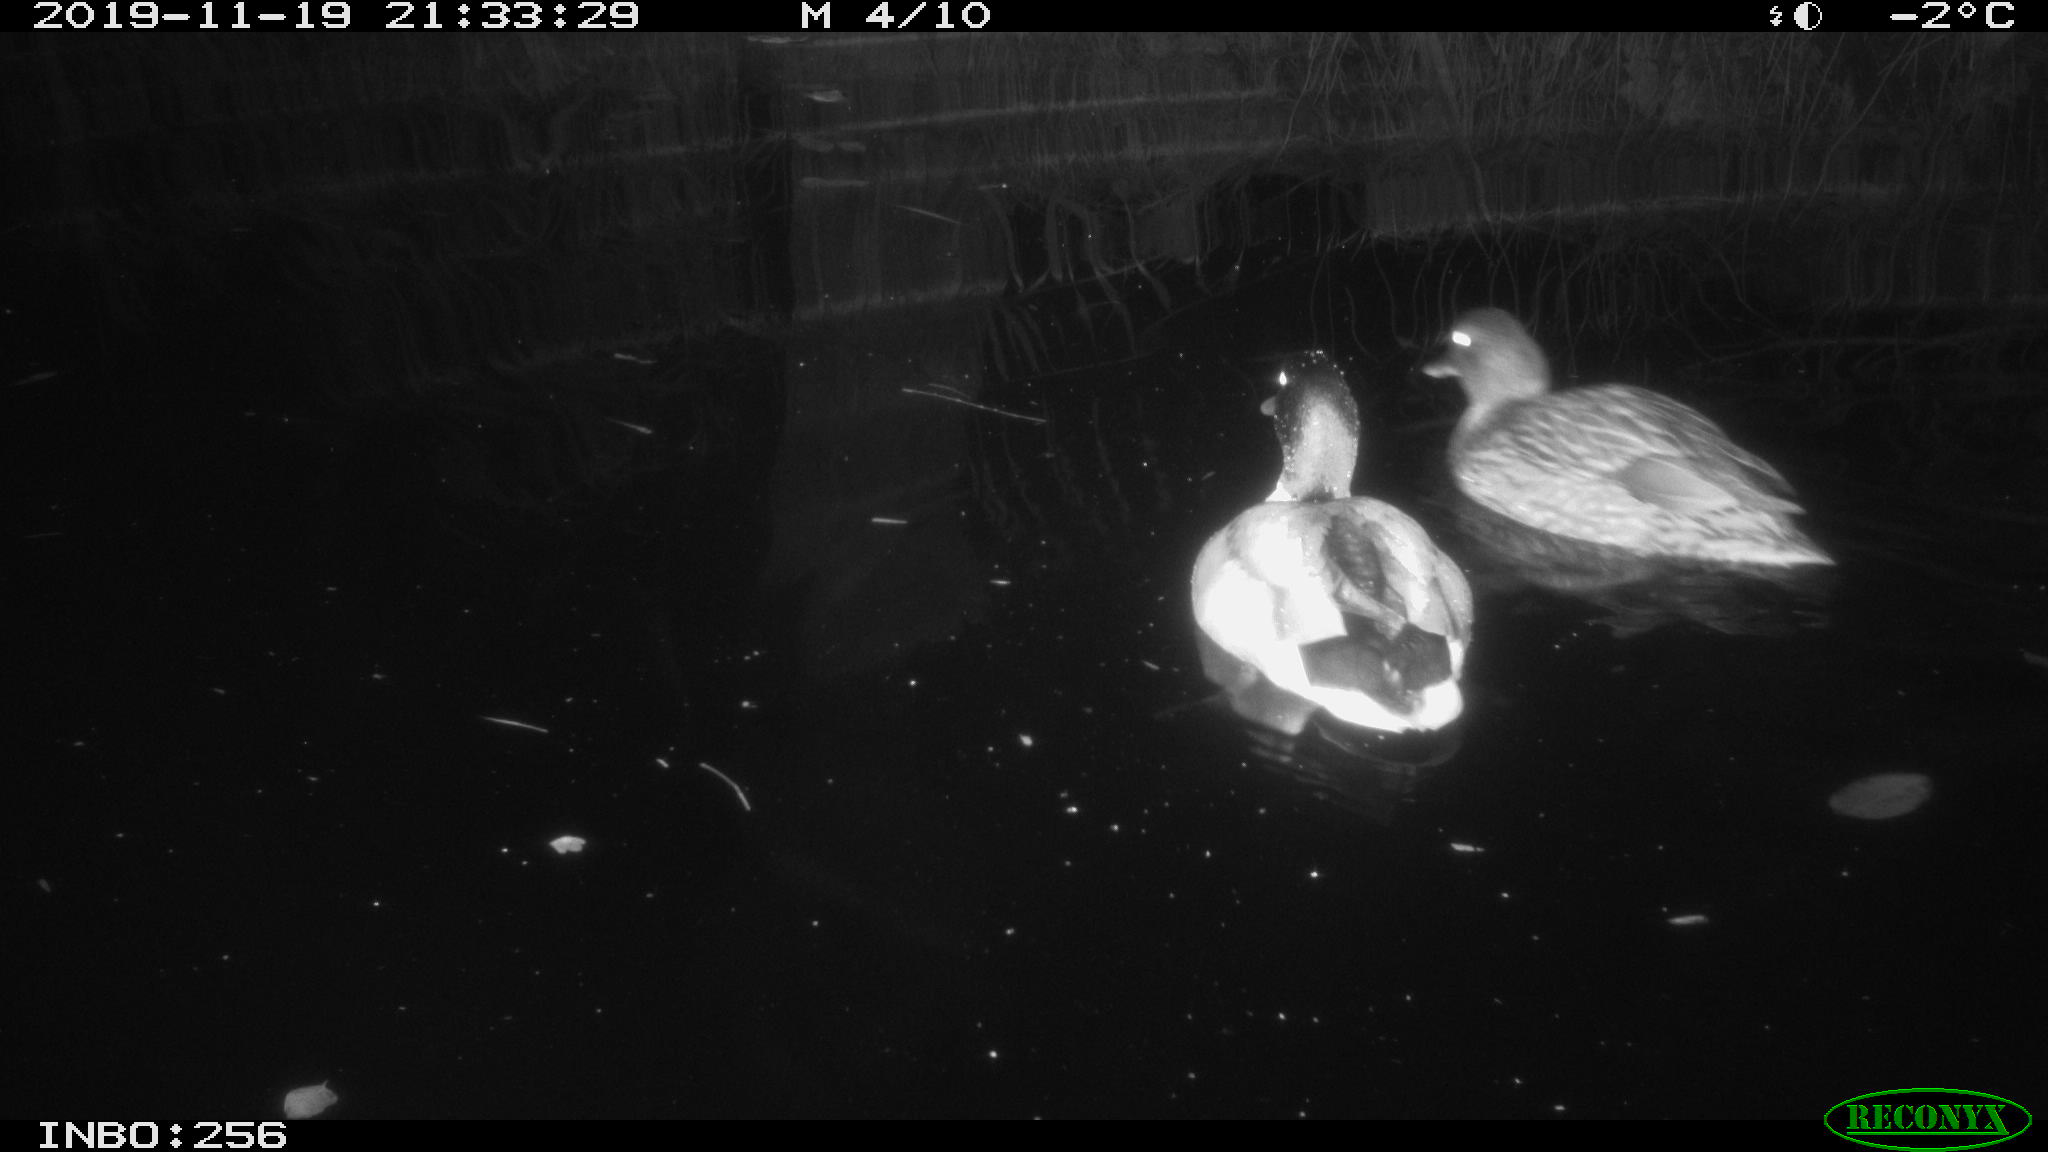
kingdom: Animalia
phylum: Chordata
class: Aves
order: Anseriformes
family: Anatidae
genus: Anas
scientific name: Anas platyrhynchos
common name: Mallard
